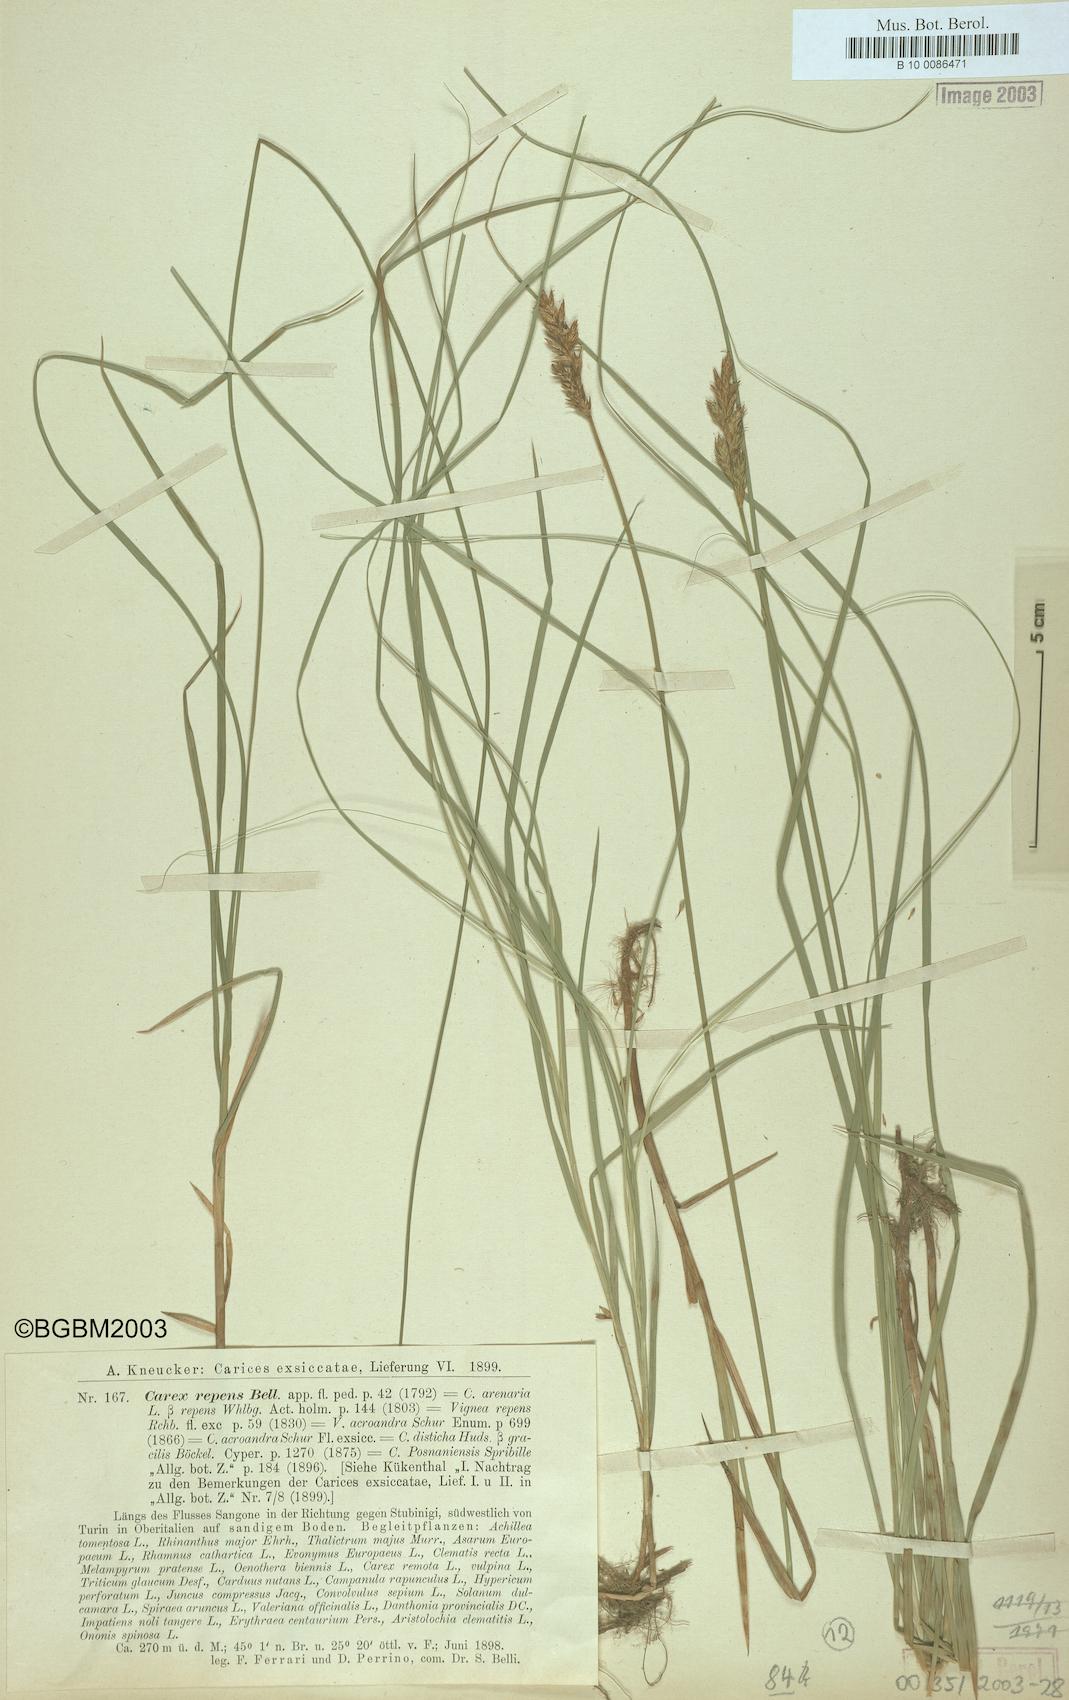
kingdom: Plantae
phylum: Tracheophyta
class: Liliopsida
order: Poales
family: Cyperaceae
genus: Carex
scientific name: Carex repens
